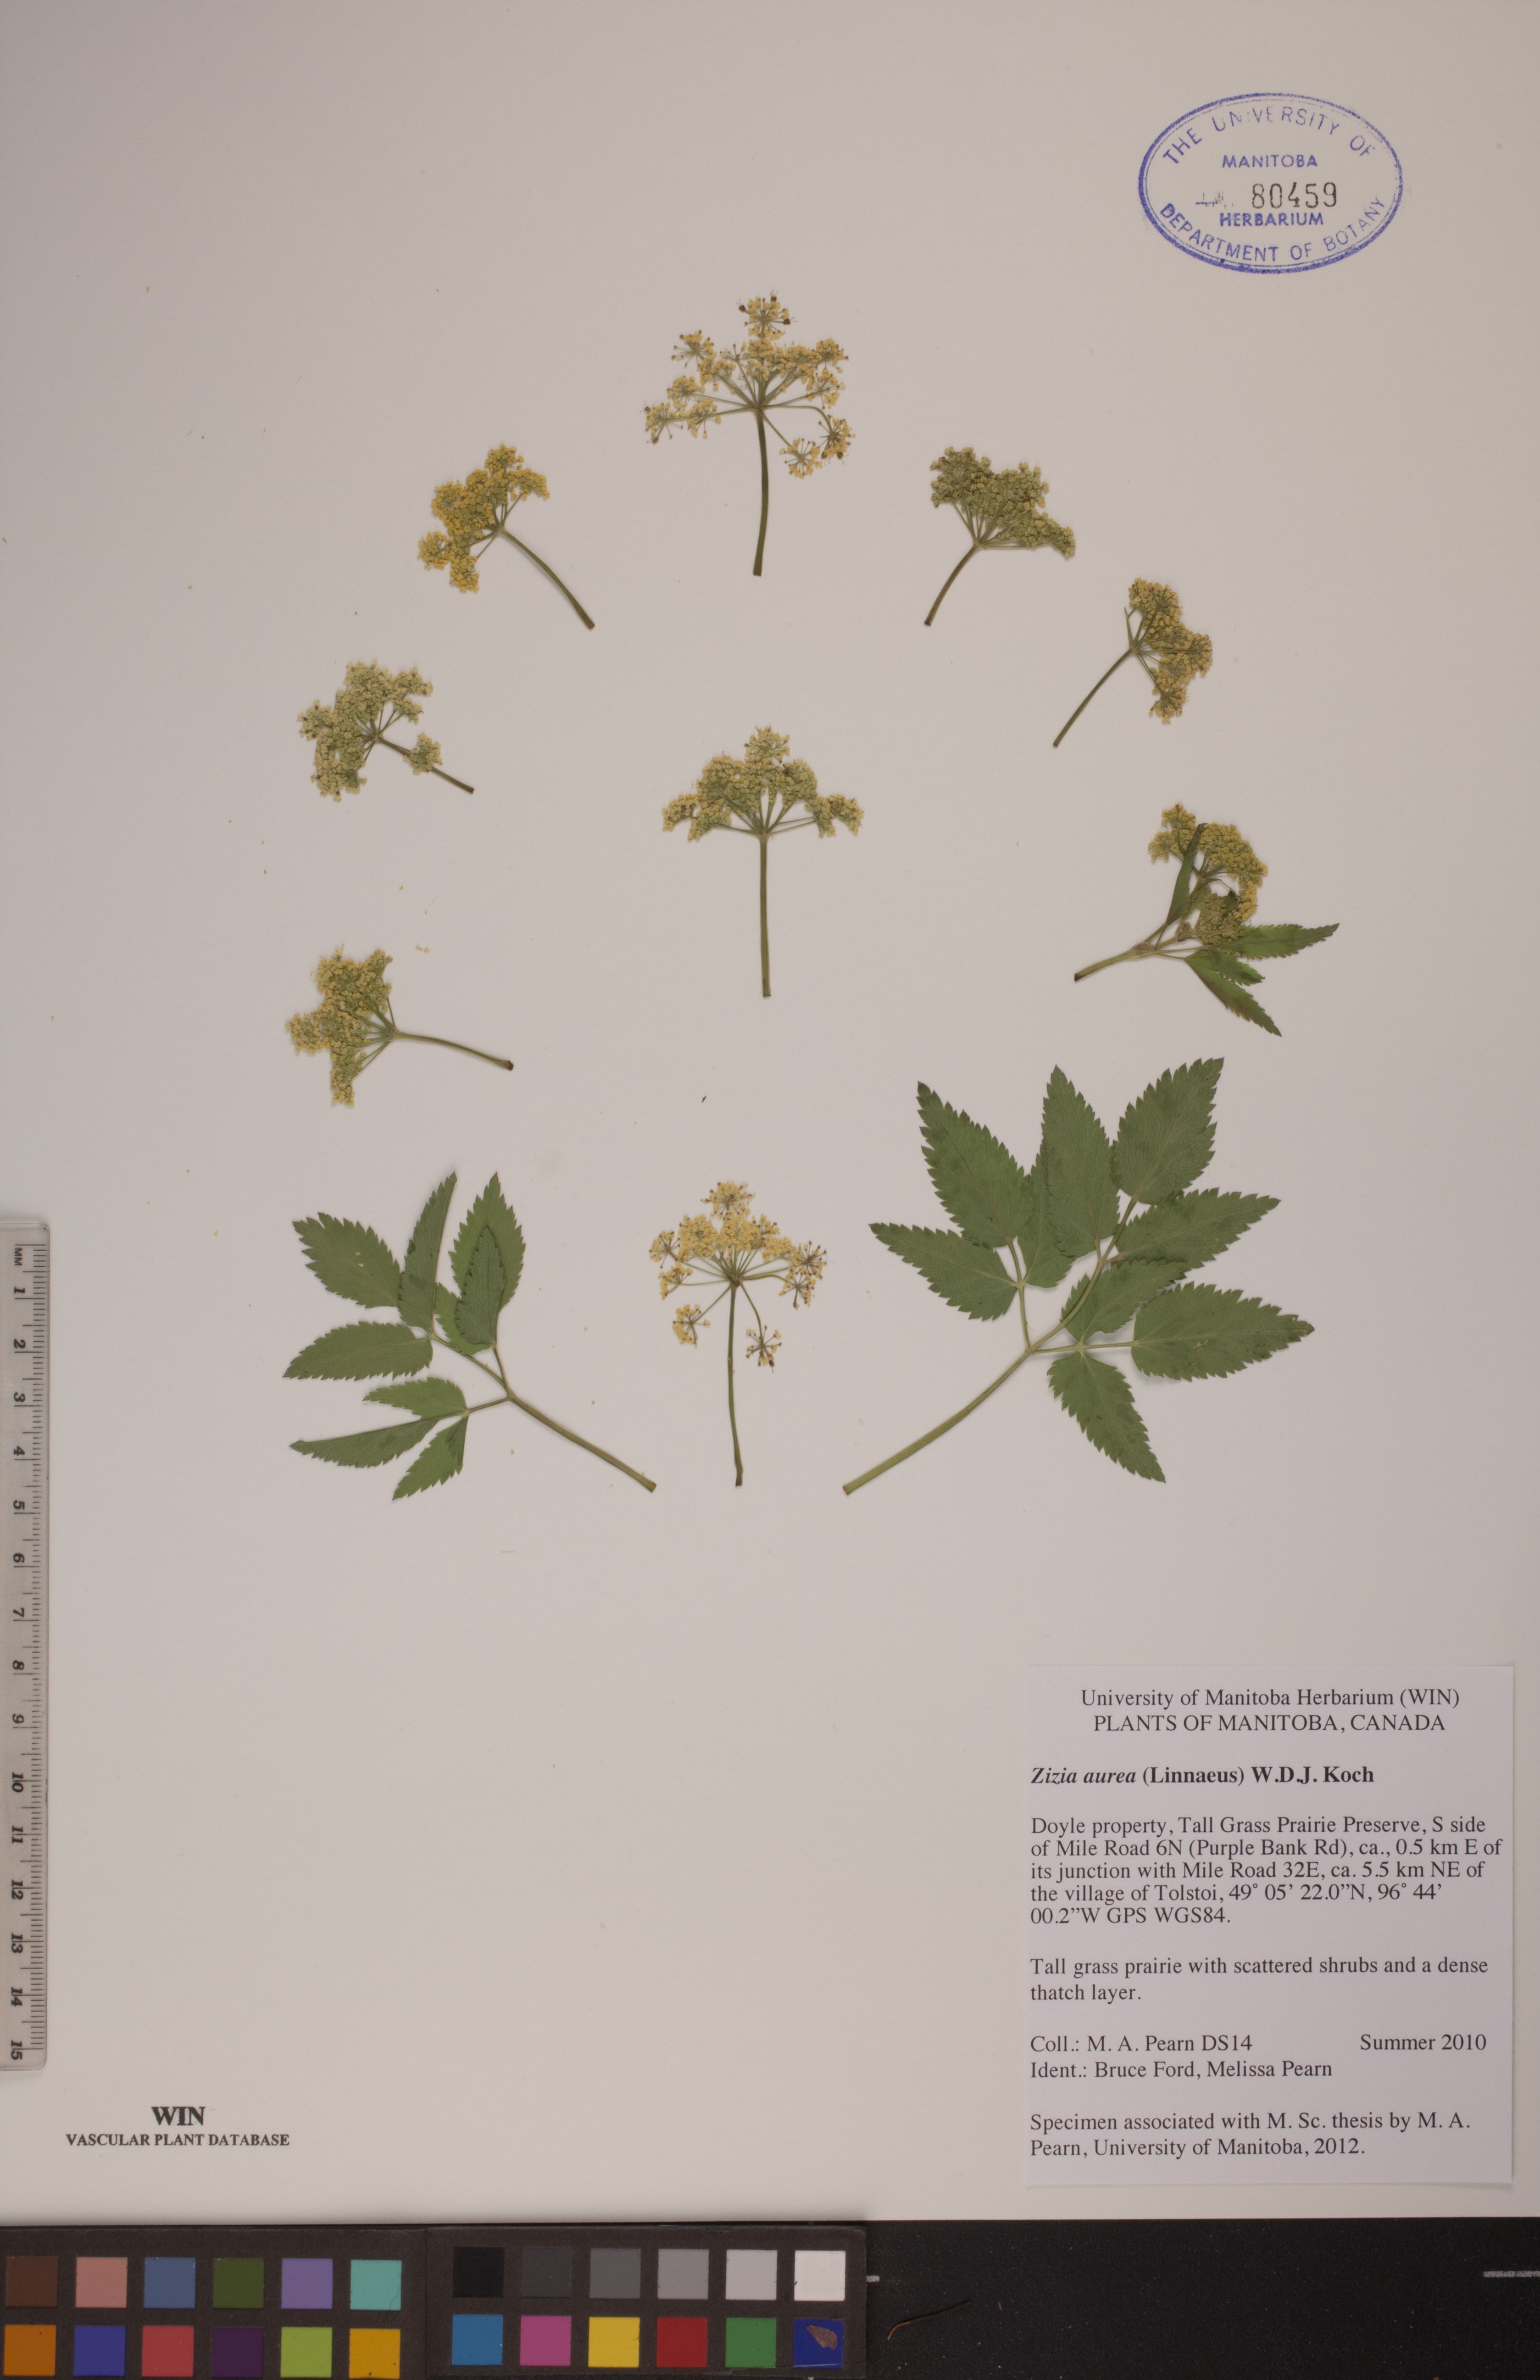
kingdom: Plantae
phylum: Tracheophyta
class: Magnoliopsida
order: Apiales
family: Apiaceae
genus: Zizia
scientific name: Zizia aurea
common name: Golden alexanders
